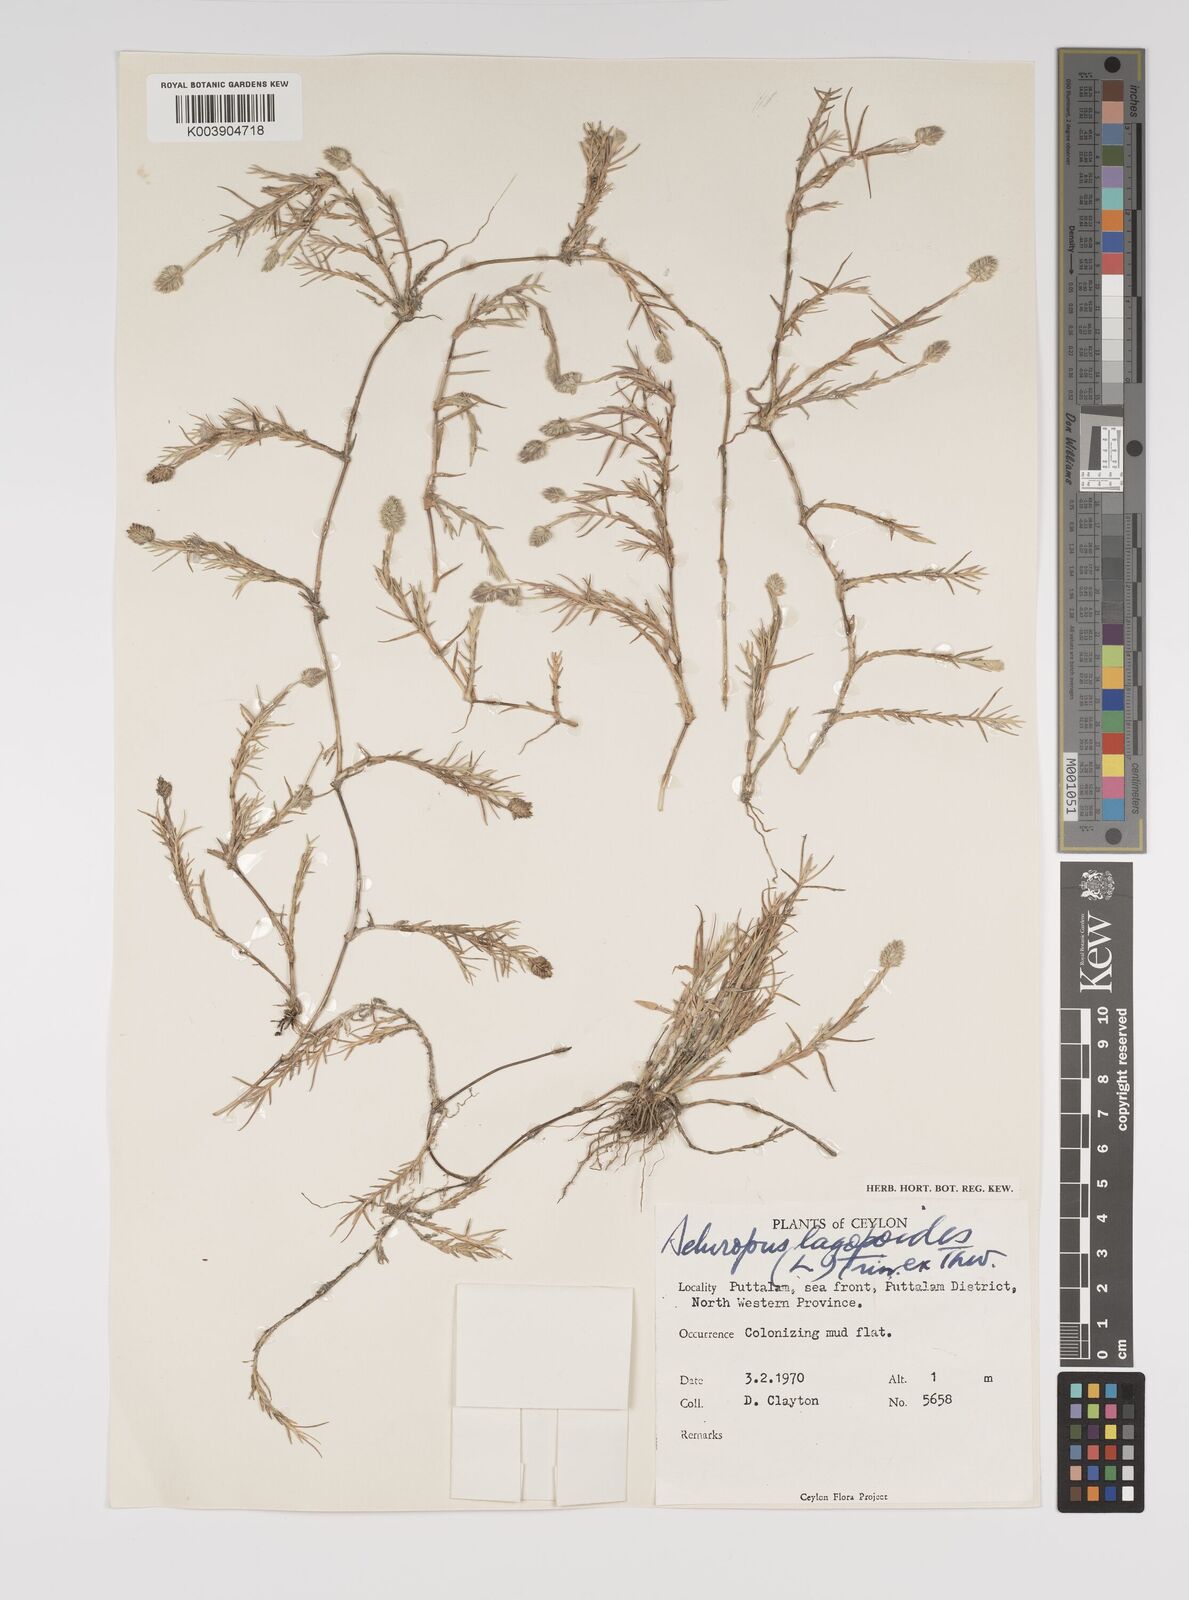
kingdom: Plantae
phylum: Tracheophyta
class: Liliopsida
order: Poales
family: Poaceae
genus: Aeluropus
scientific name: Aeluropus lagopoides
